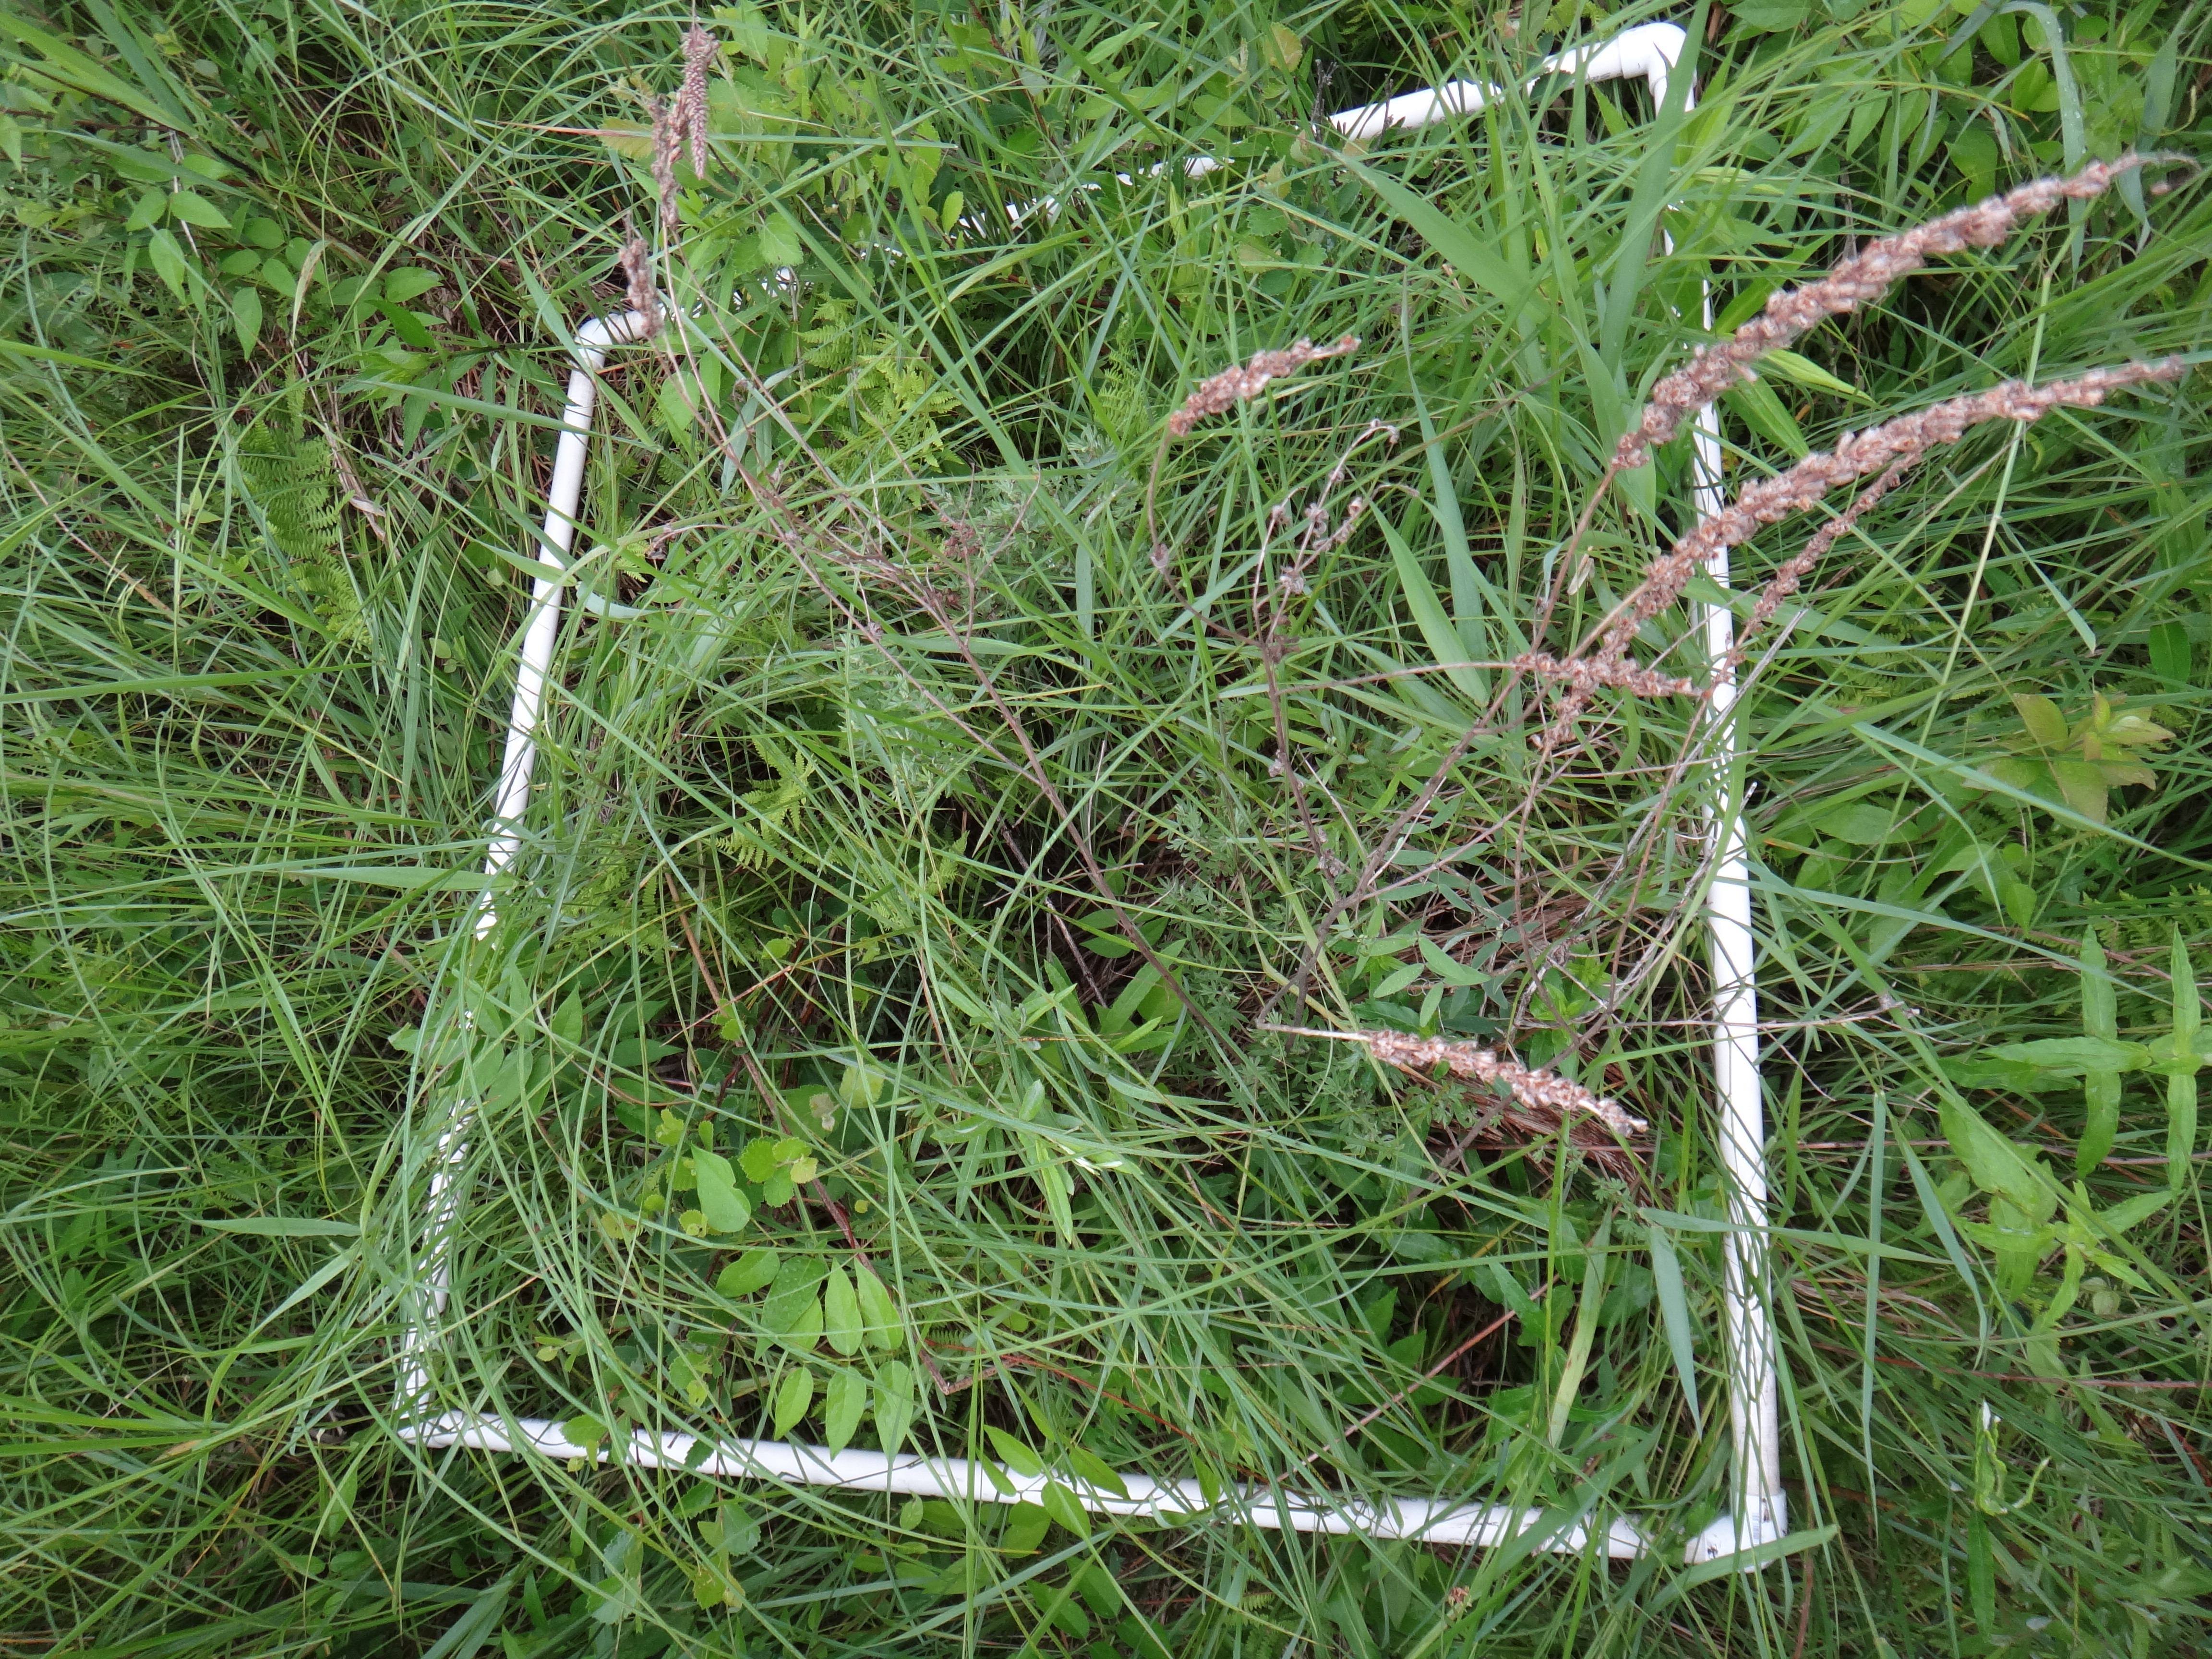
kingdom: Plantae
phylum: Tracheophyta
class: Magnoliopsida
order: Asterales
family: Asteraceae
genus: Eutrochium
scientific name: Eutrochium maculatum
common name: Spotted joe pye weed
